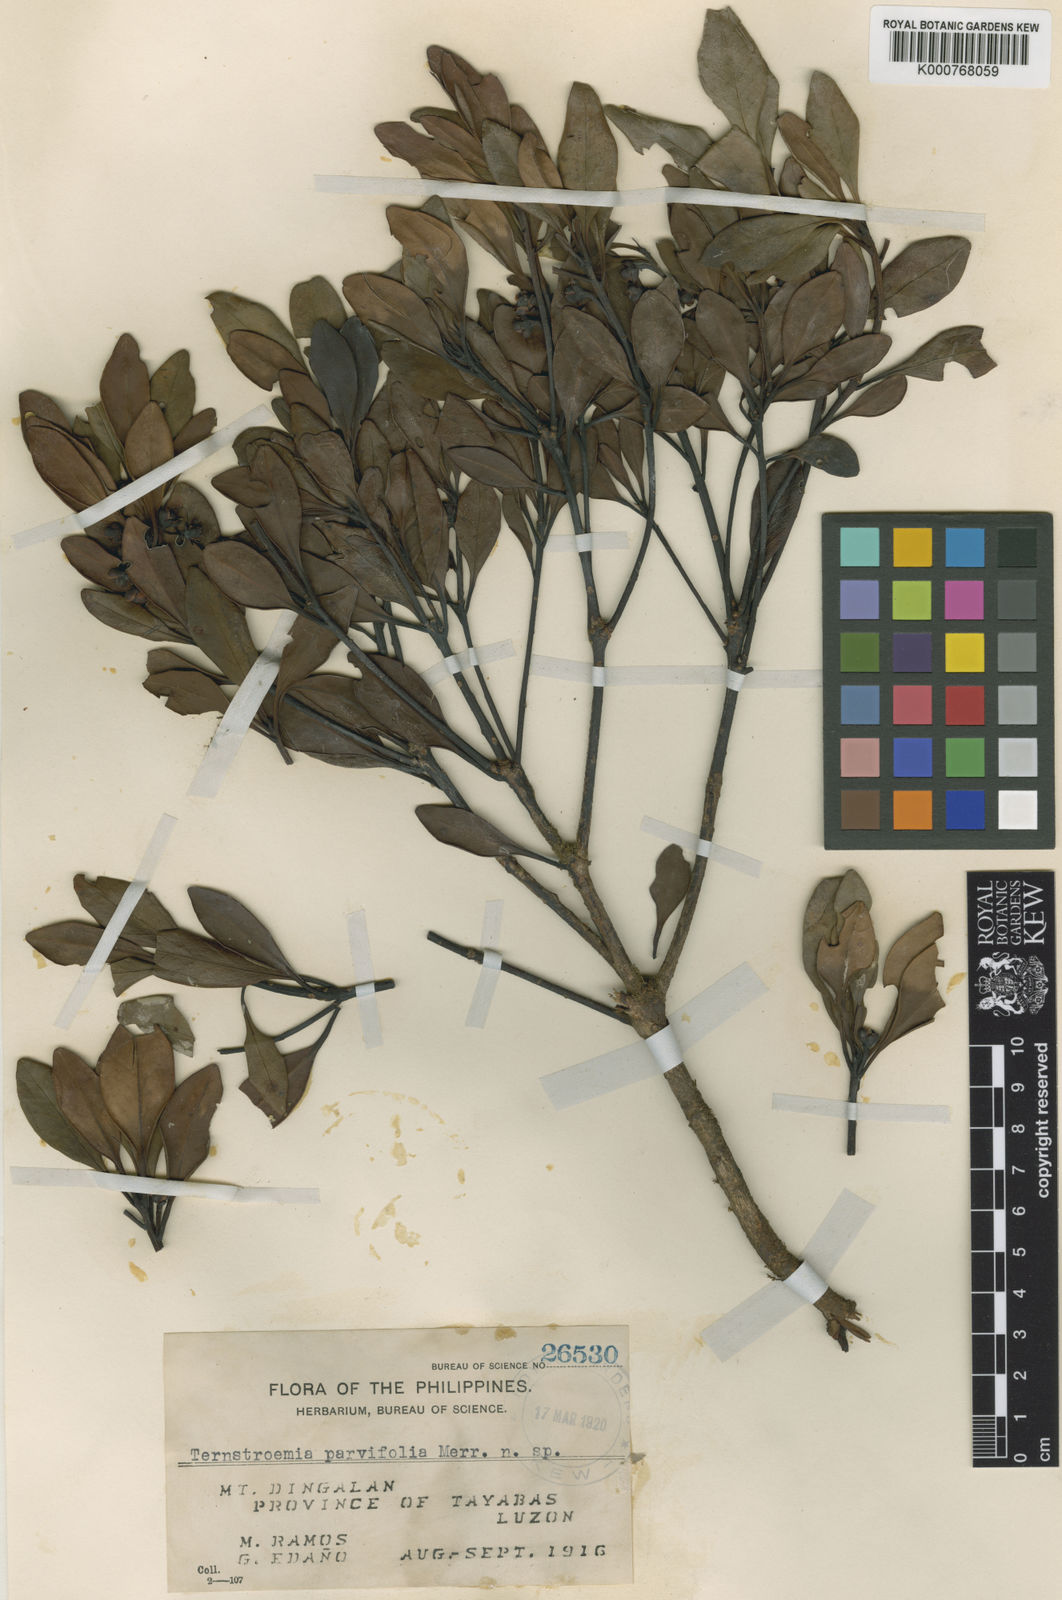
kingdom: Plantae
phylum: Tracheophyta
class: Magnoliopsida
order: Ericales
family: Pentaphylacaceae
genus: Ternstroemia
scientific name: Ternstroemia
